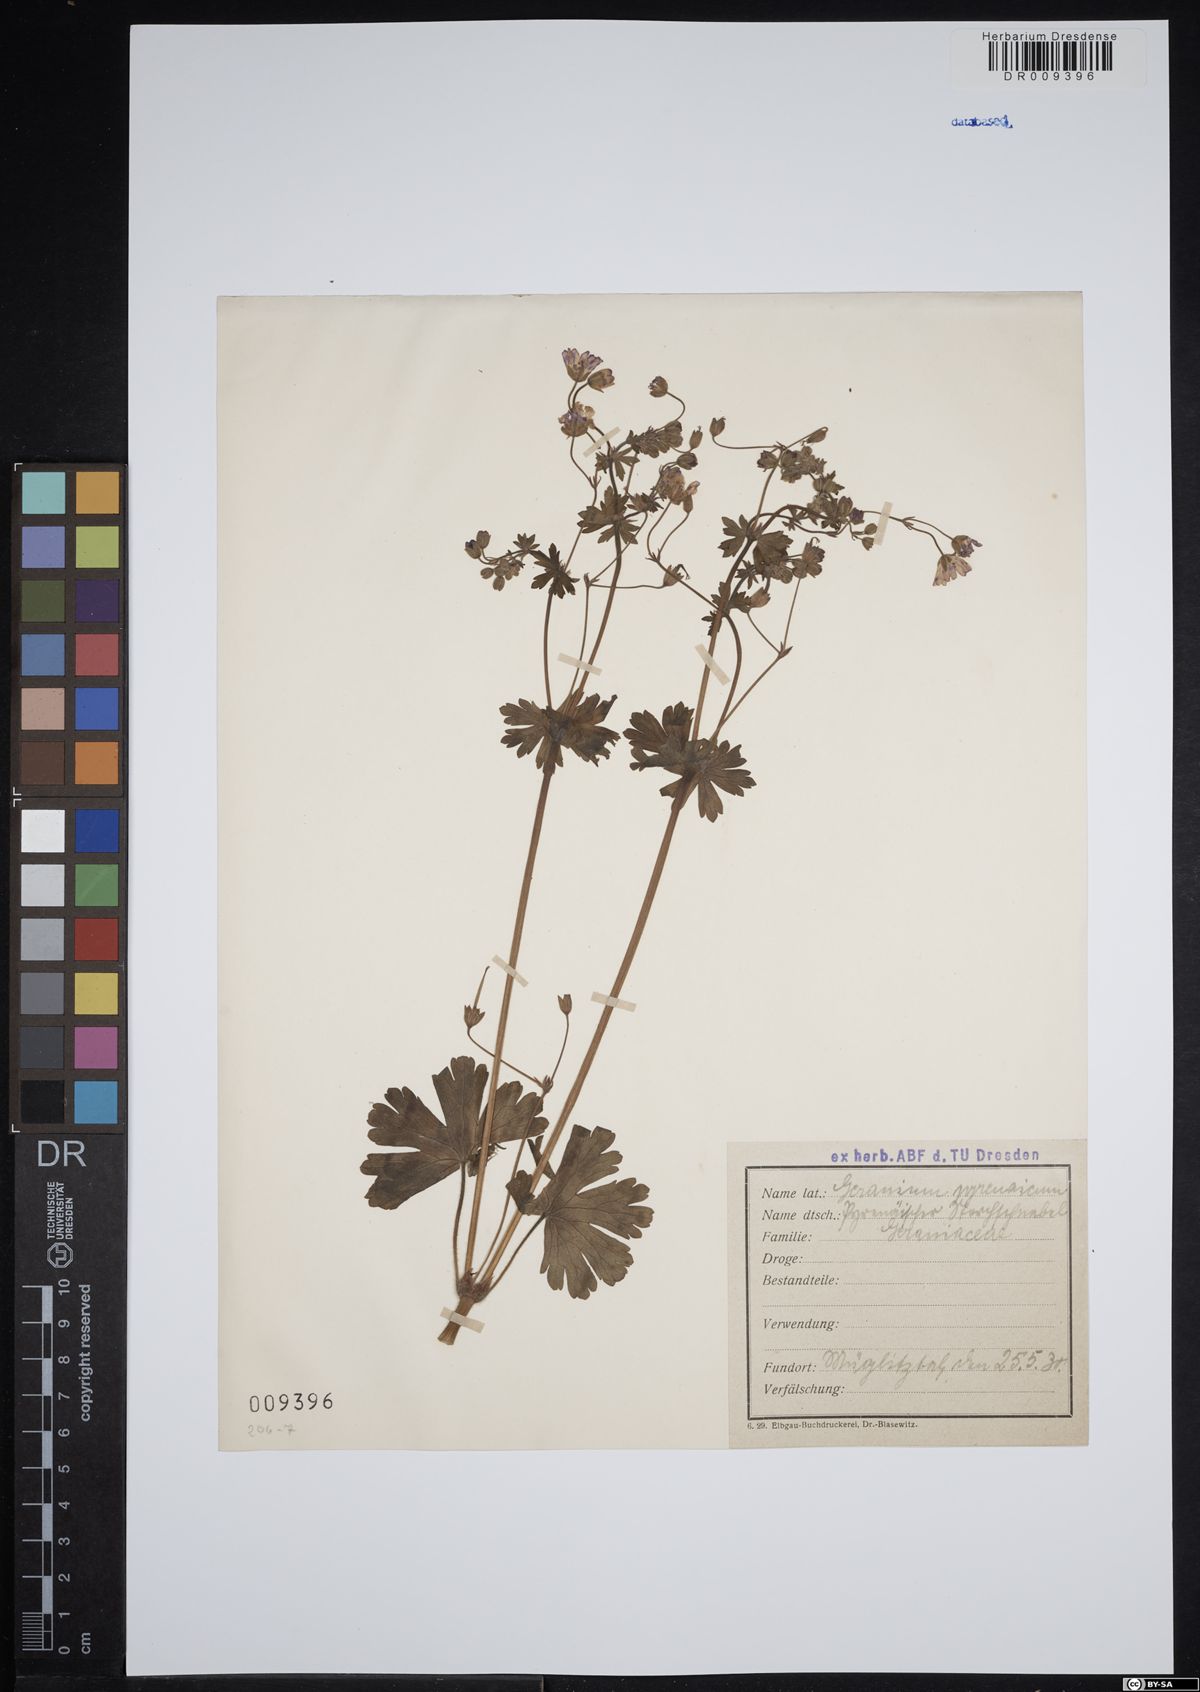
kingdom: Plantae
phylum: Tracheophyta
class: Magnoliopsida
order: Geraniales
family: Geraniaceae
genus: Geranium
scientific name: Geranium pyrenaicum
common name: Hedgerow crane's-bill
